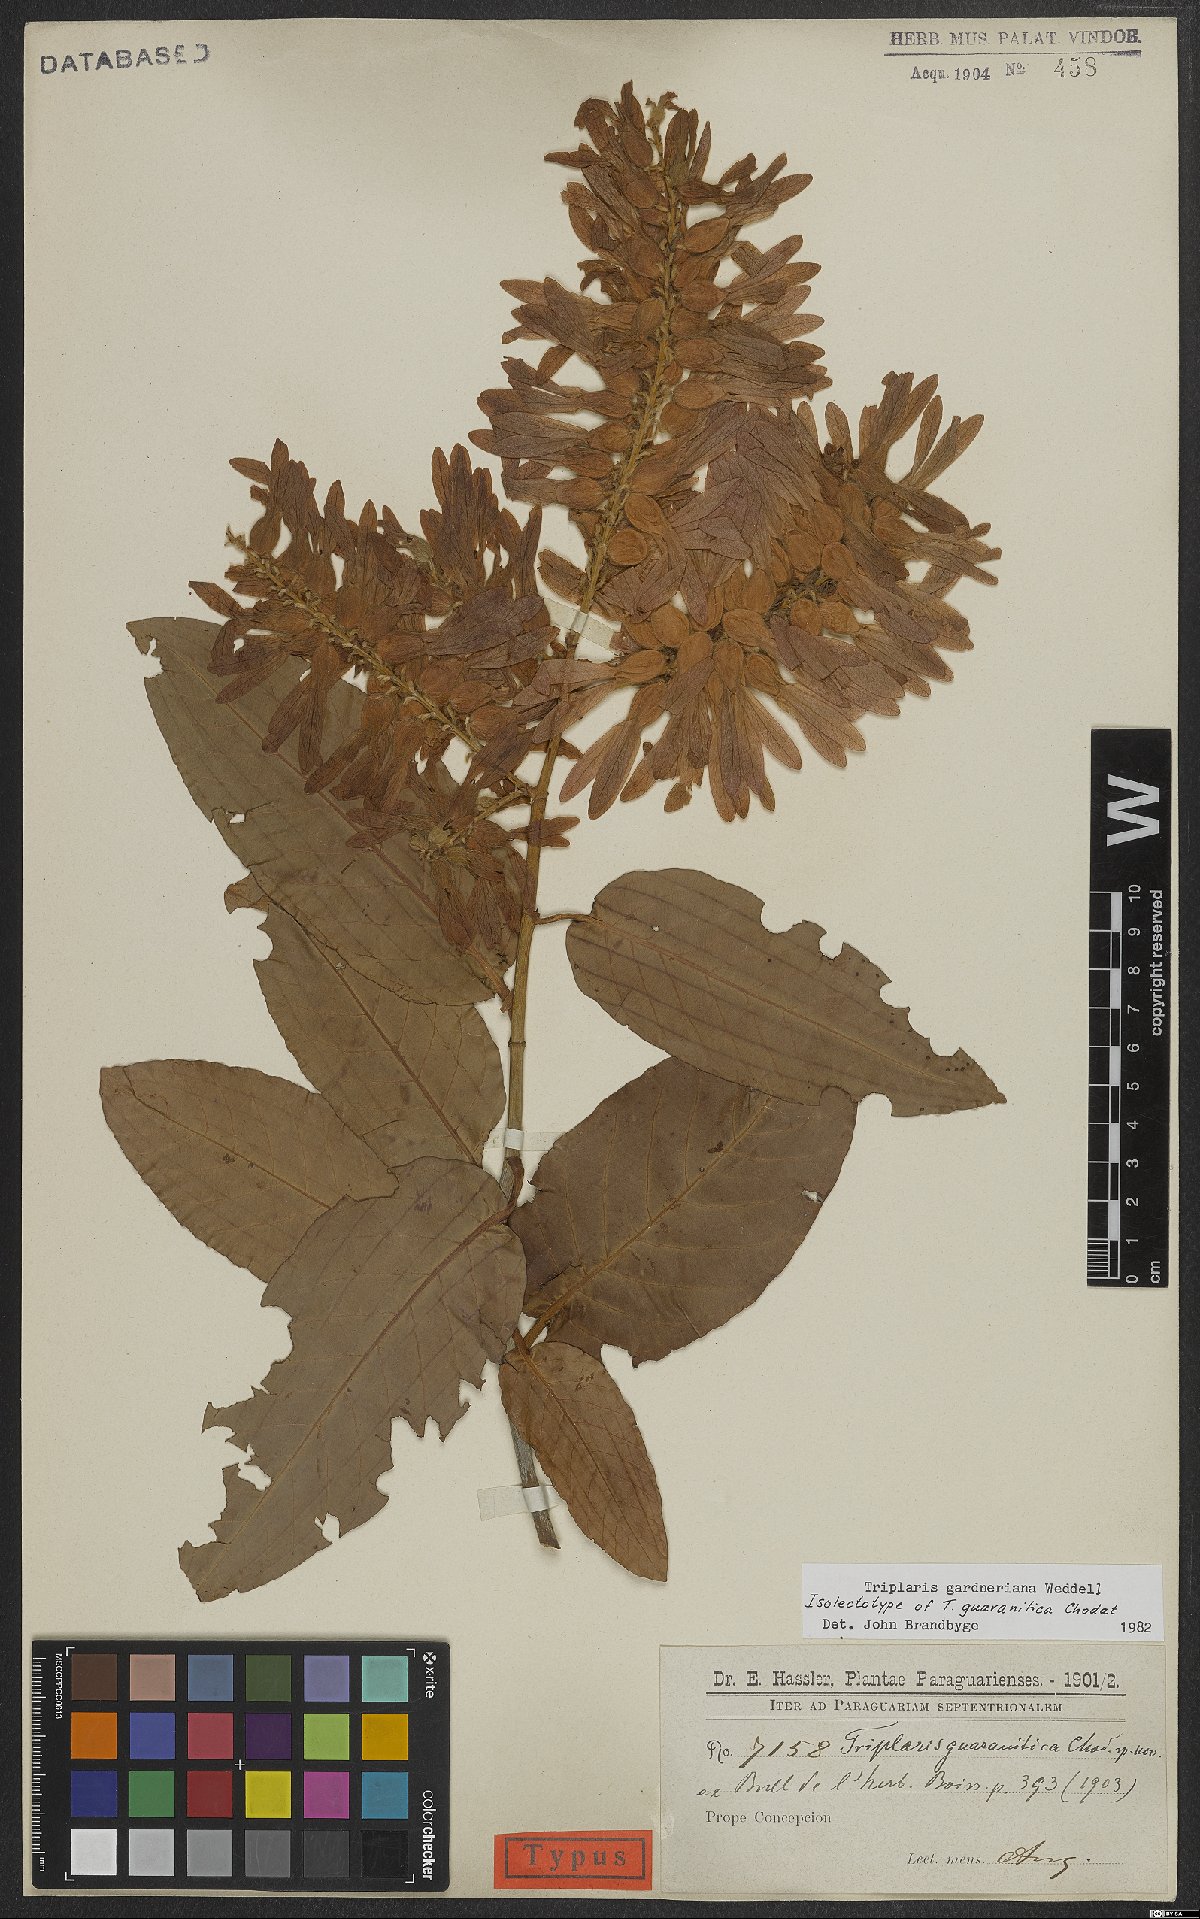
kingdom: Plantae
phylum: Tracheophyta
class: Magnoliopsida
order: Caryophyllales
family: Polygonaceae
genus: Triplaris
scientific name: Triplaris gardneriana
